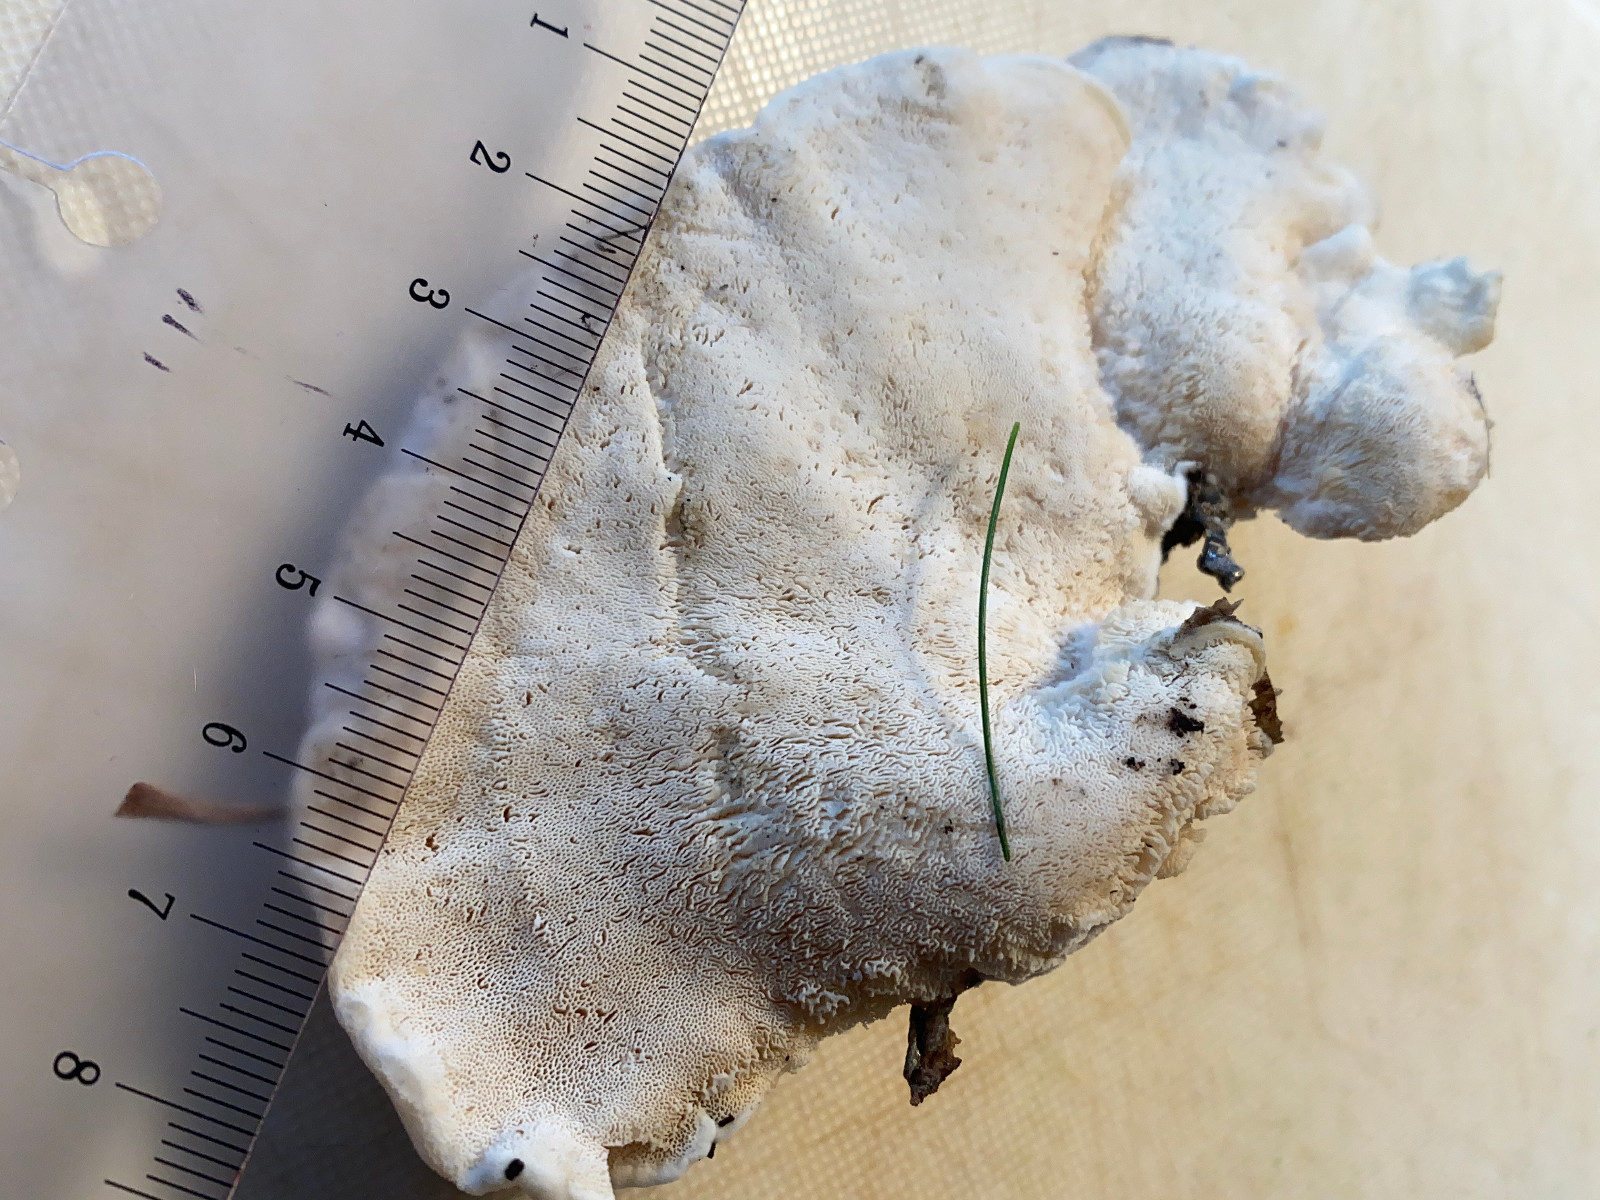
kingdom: Fungi
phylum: Basidiomycota
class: Agaricomycetes
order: Polyporales
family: Incrustoporiaceae
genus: Tyromyces
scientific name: Tyromyces lacteus
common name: mælkehvid kødporesvamp
